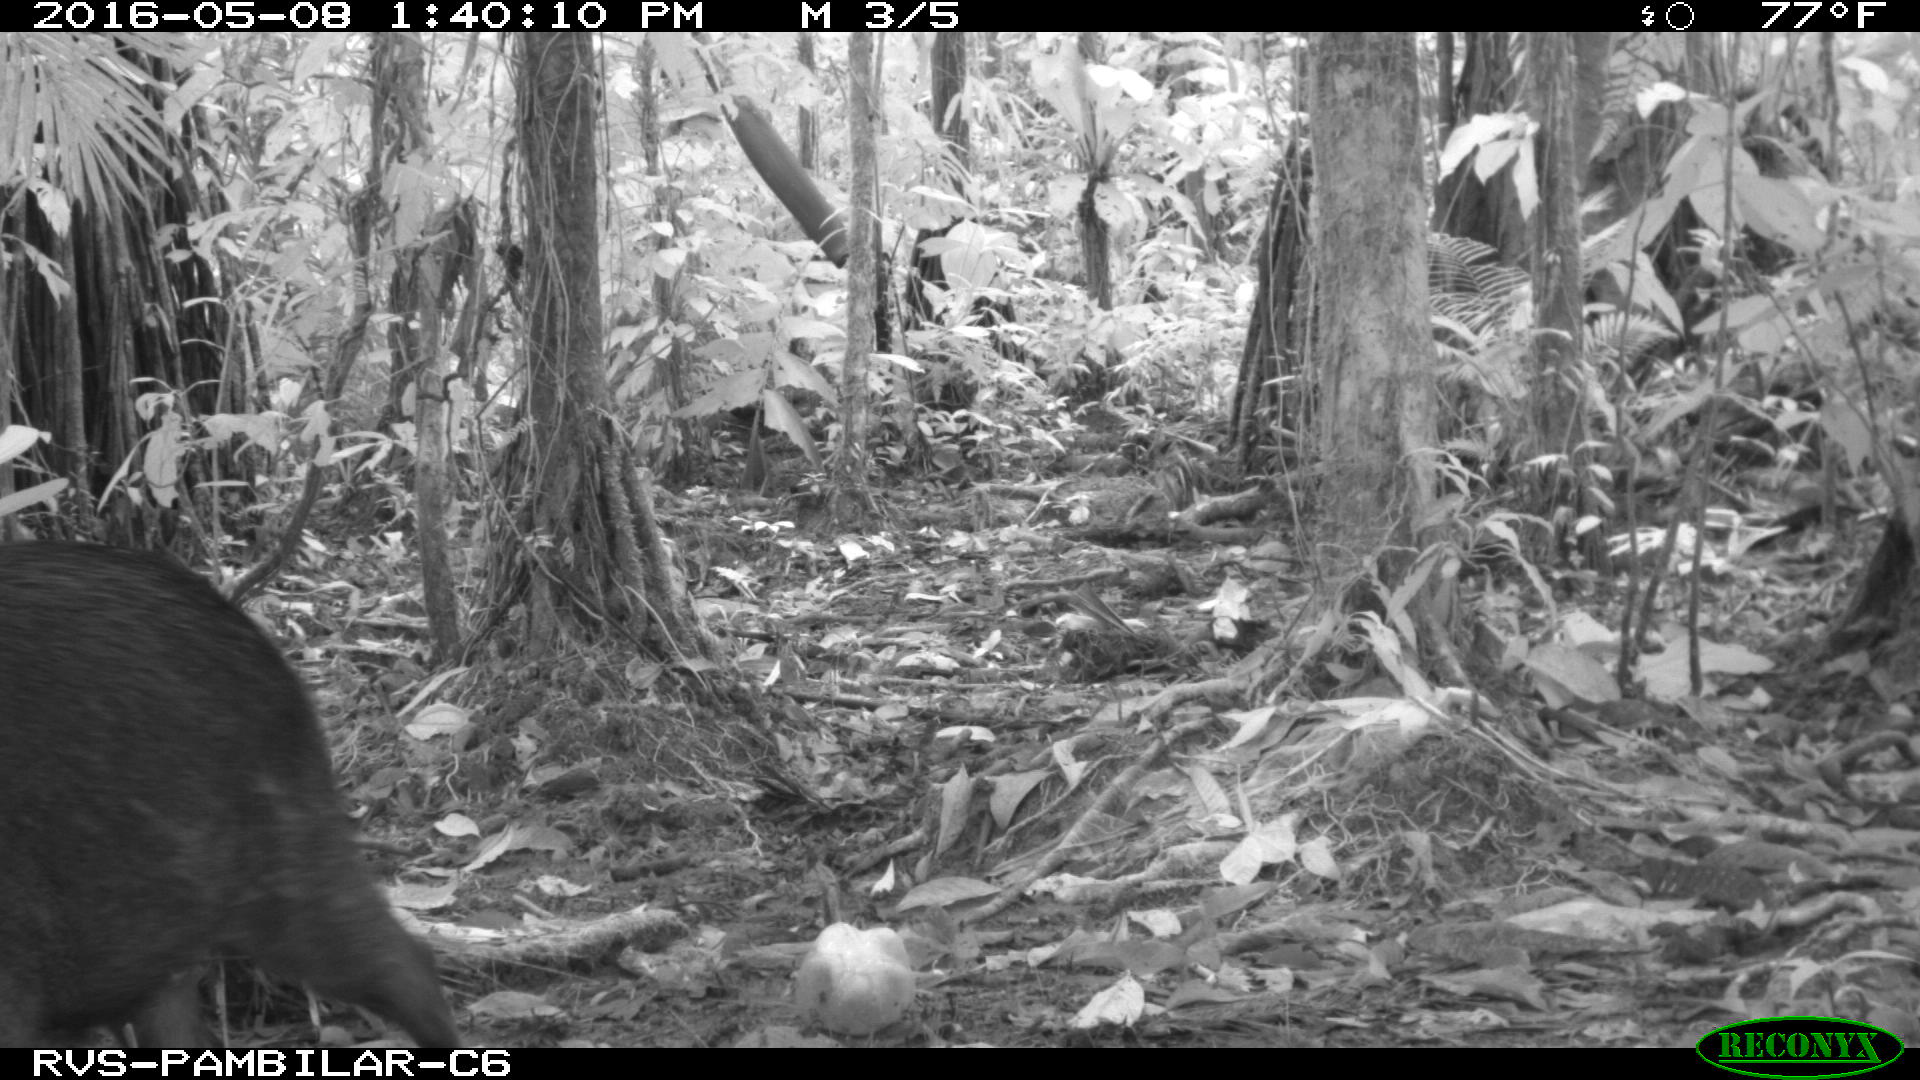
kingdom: Animalia
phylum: Chordata
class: Mammalia
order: Artiodactyla
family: Tayassuidae
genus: Tayassu
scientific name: Tayassu pecari
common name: White-lipped peccary
